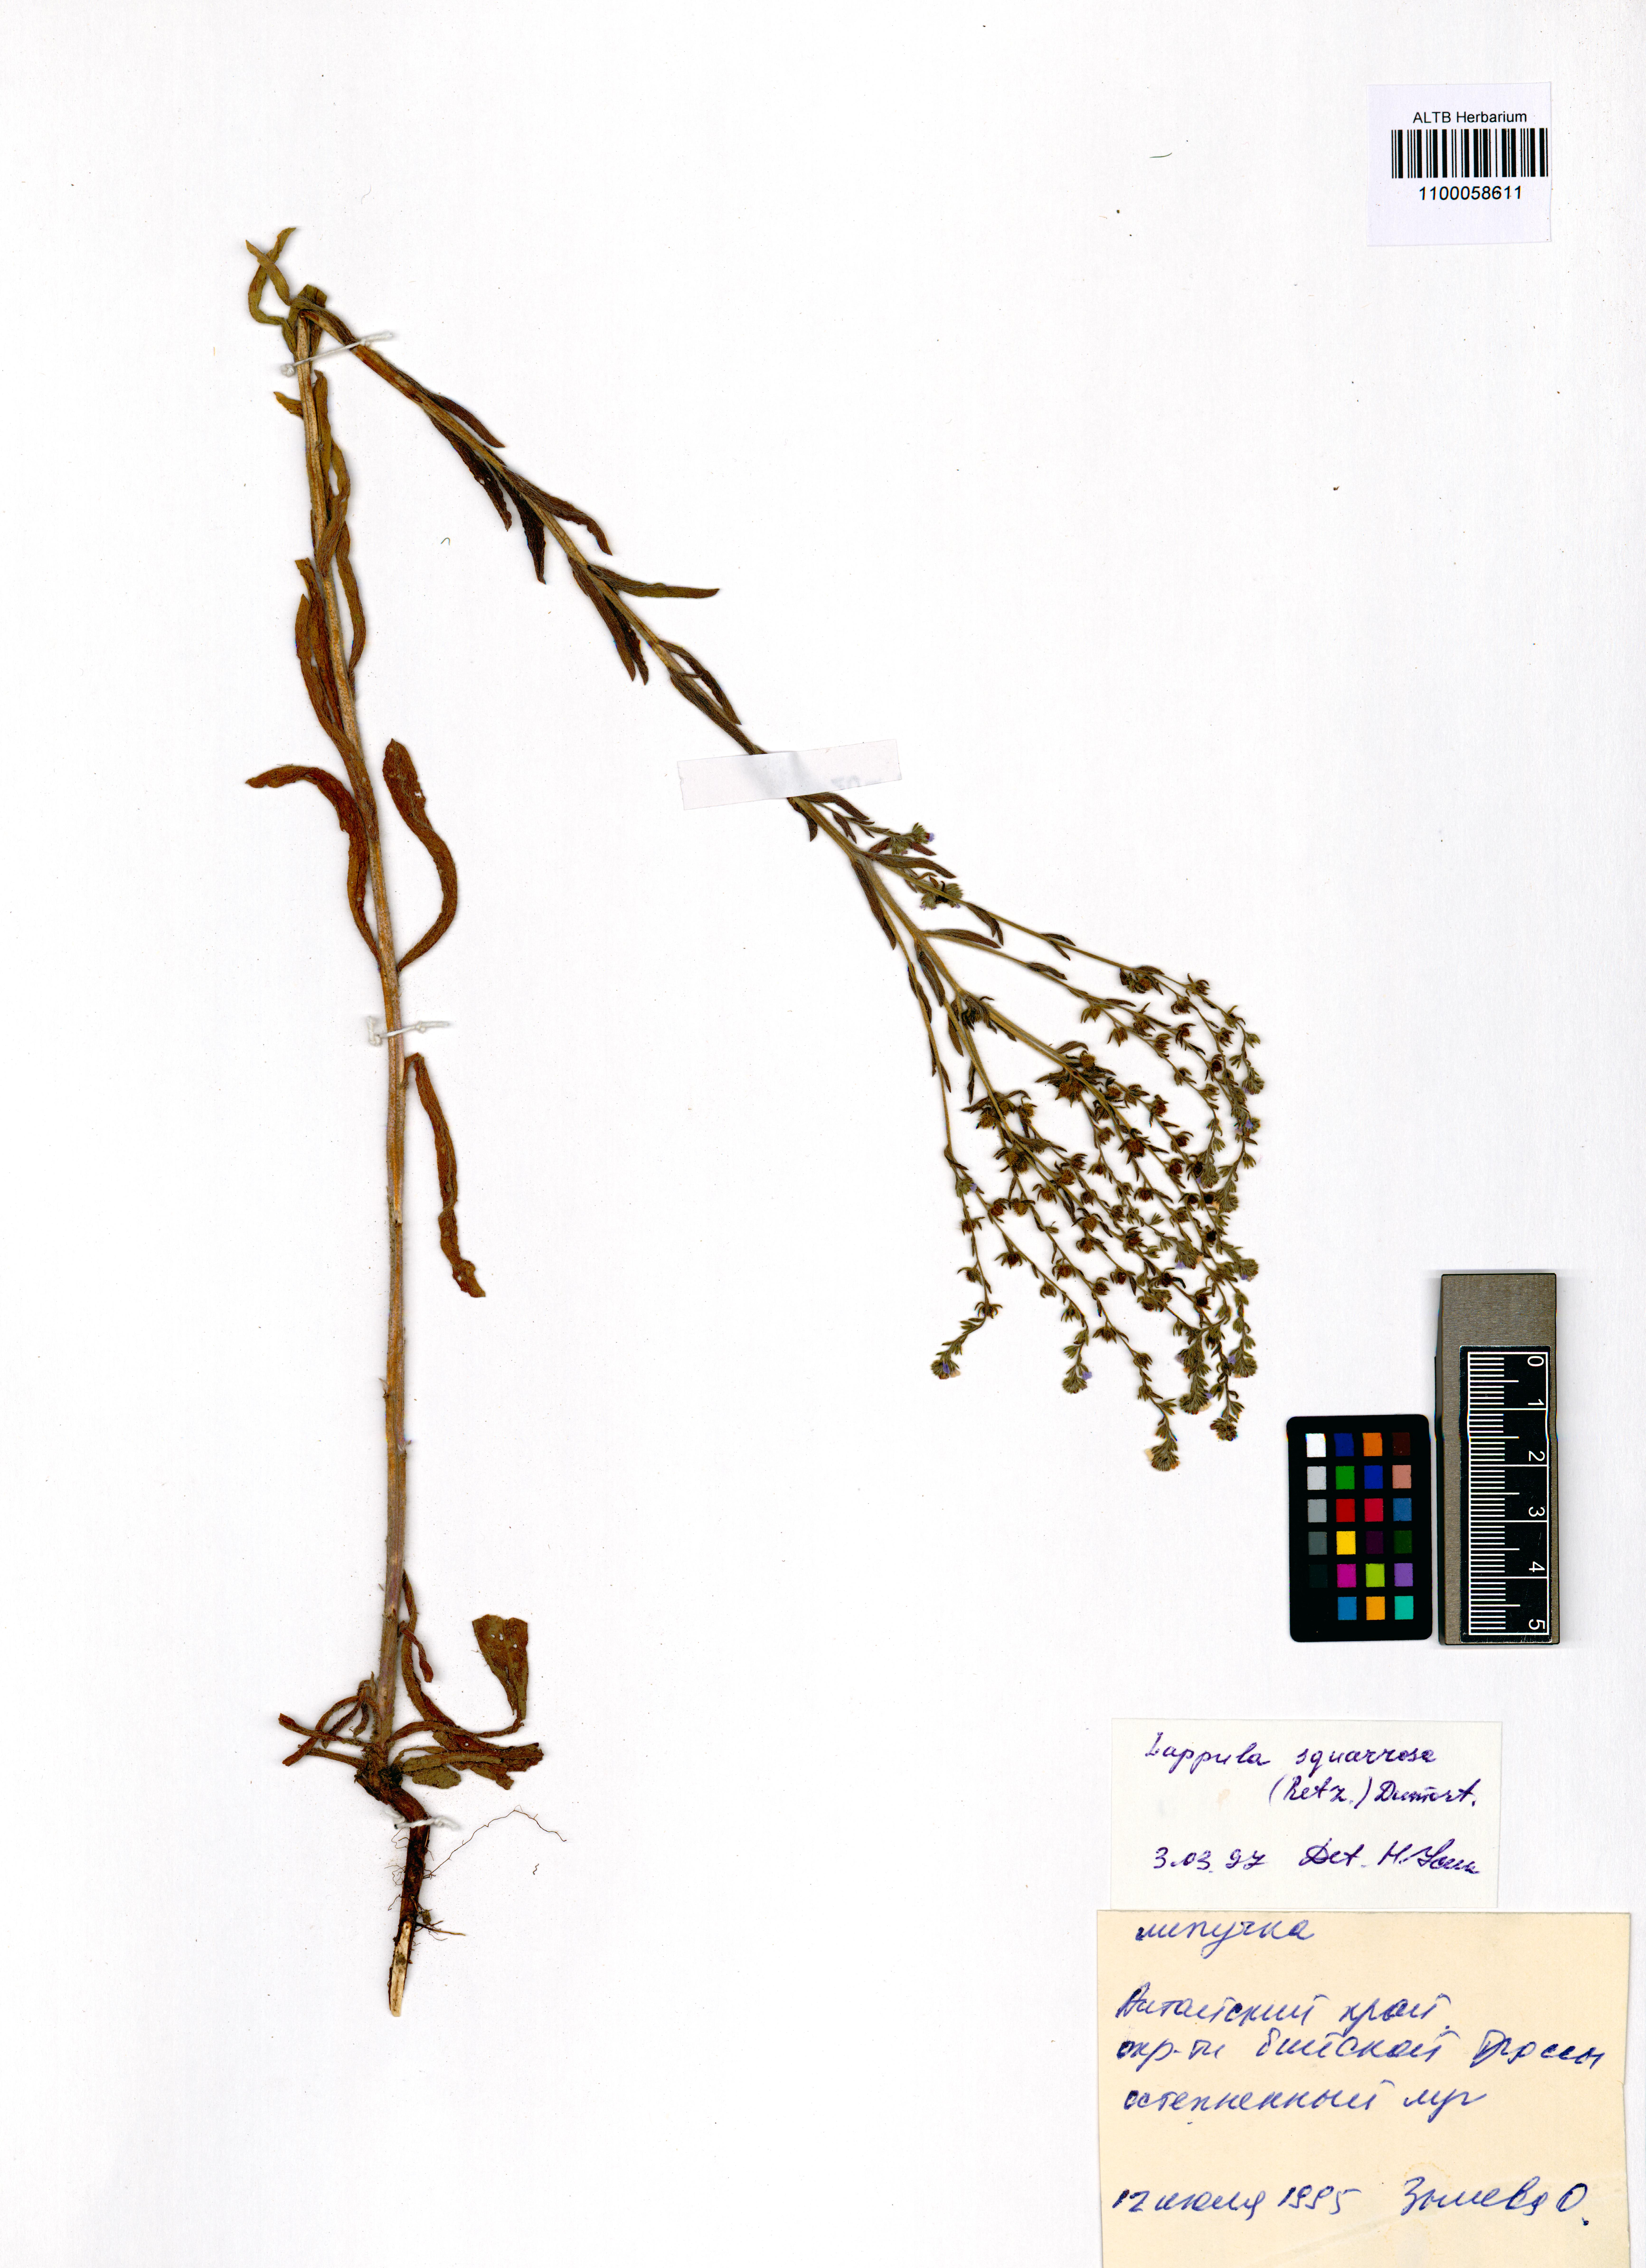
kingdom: Plantae
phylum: Tracheophyta
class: Magnoliopsida
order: Boraginales
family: Boraginaceae
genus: Lappula
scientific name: Lappula squarrosa
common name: European stickseed
